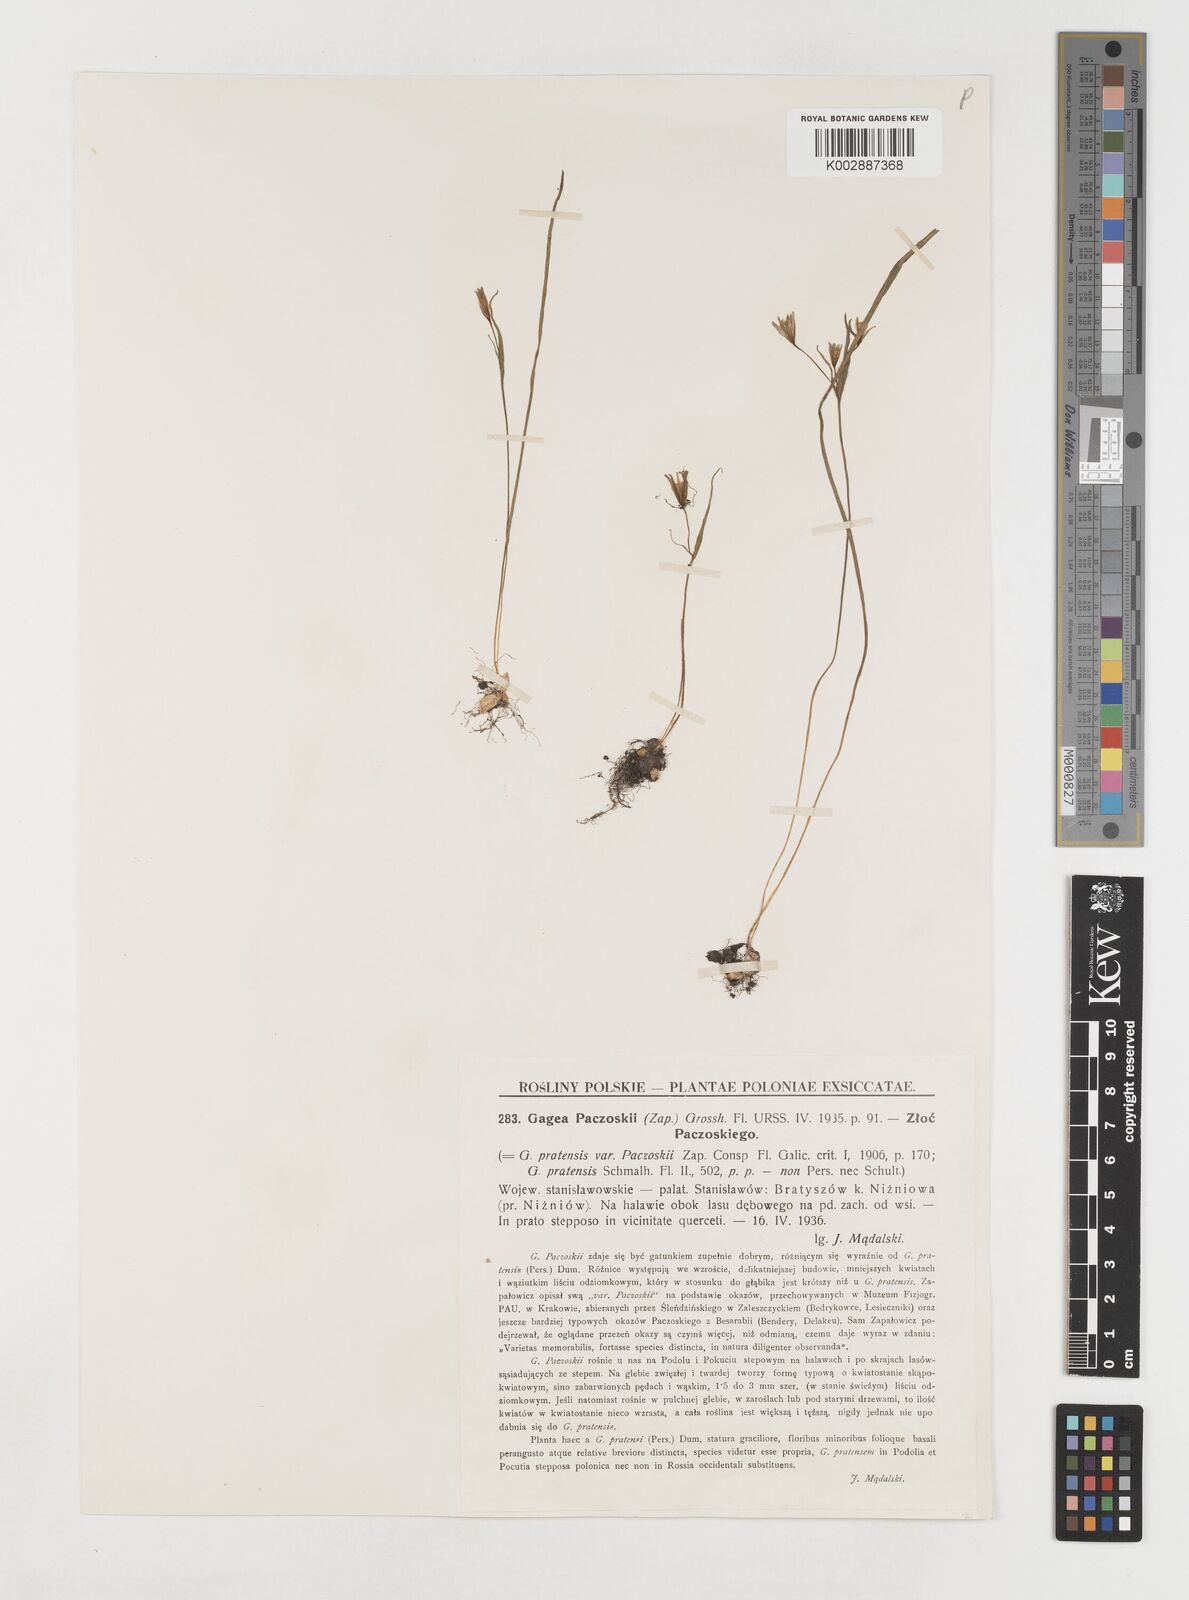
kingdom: Plantae
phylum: Tracheophyta
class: Liliopsida
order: Liliales
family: Liliaceae
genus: Gagea
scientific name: Gagea pratensis
